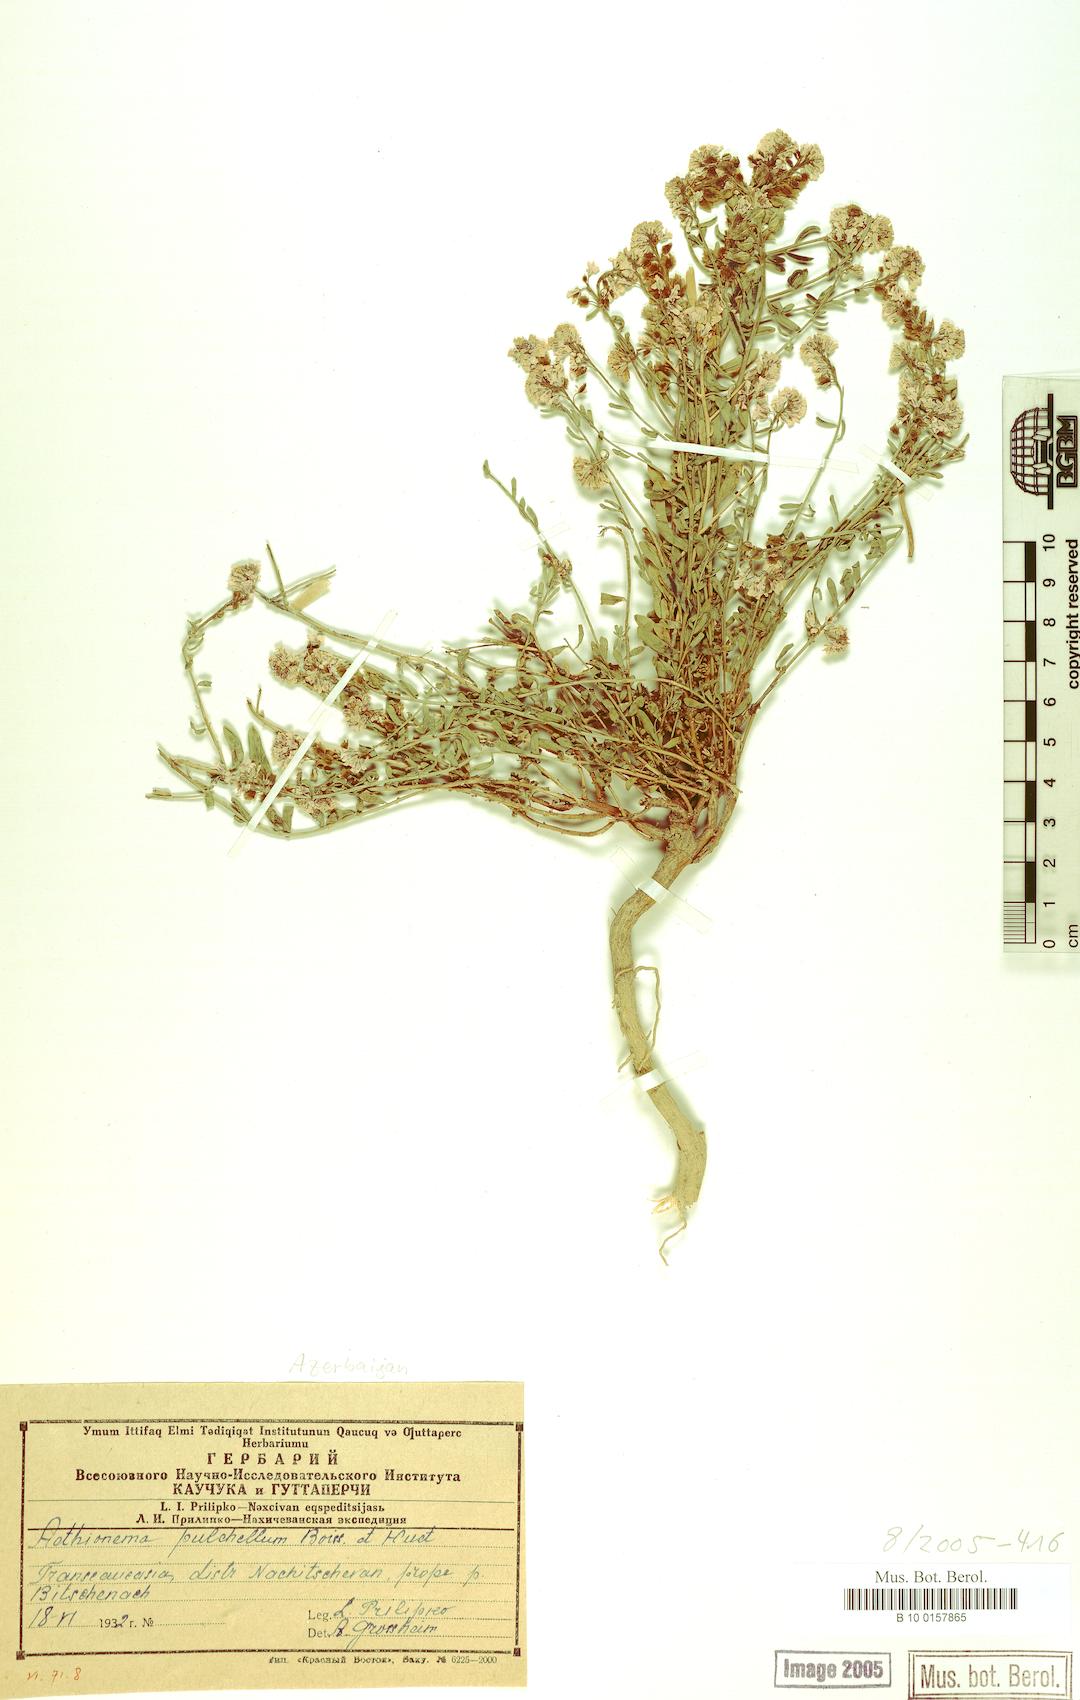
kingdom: Plantae
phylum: Tracheophyta
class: Magnoliopsida
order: Brassicales
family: Brassicaceae
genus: Aethionema
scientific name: Aethionema grandiflorum
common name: Persian stonecress
